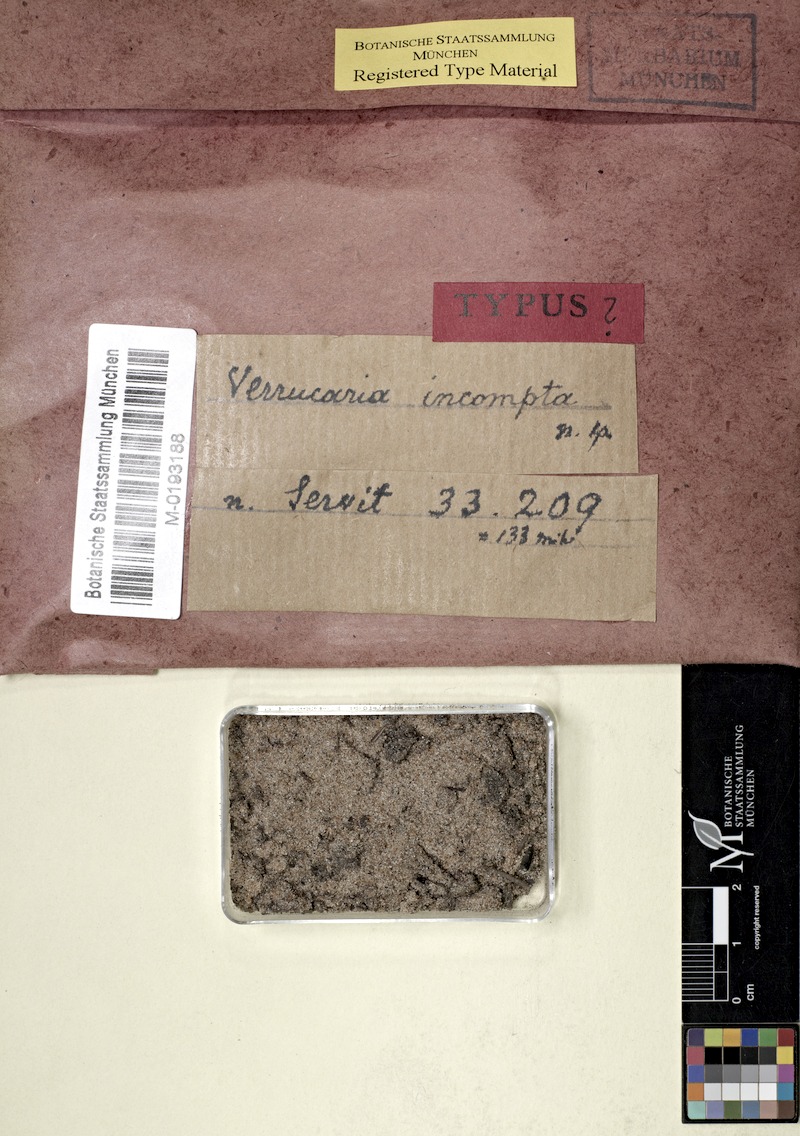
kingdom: Fungi
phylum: Ascomycota
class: Eurotiomycetes
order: Verrucariales
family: Verrucariaceae
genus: Verrucaria
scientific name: Verrucaria incompta
